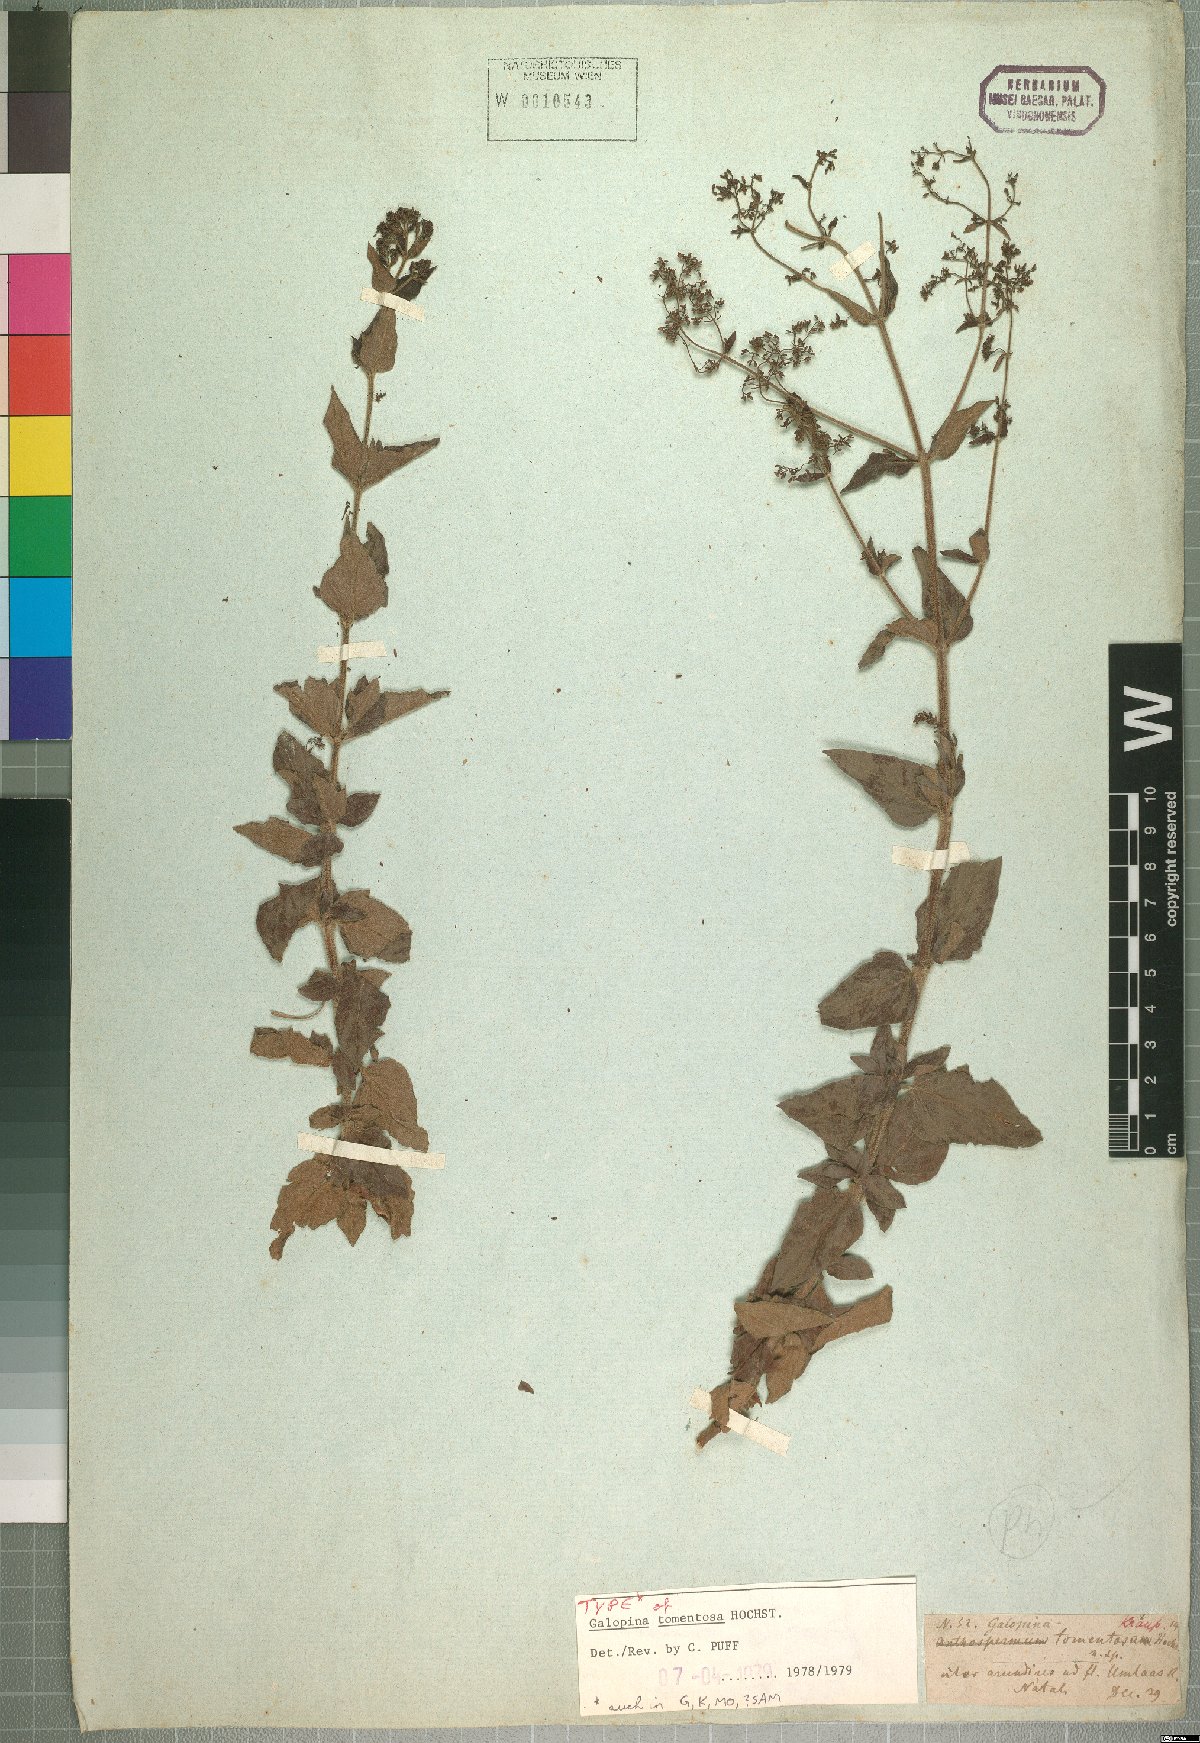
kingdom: Plantae
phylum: Tracheophyta
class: Magnoliopsida
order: Gentianales
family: Rubiaceae
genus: Galopina
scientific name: Galopina tomentosa
